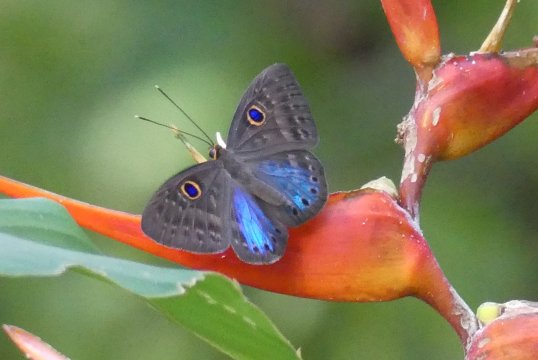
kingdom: Animalia
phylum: Cnidaria
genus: Eurybia
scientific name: Eurybia lycisca
